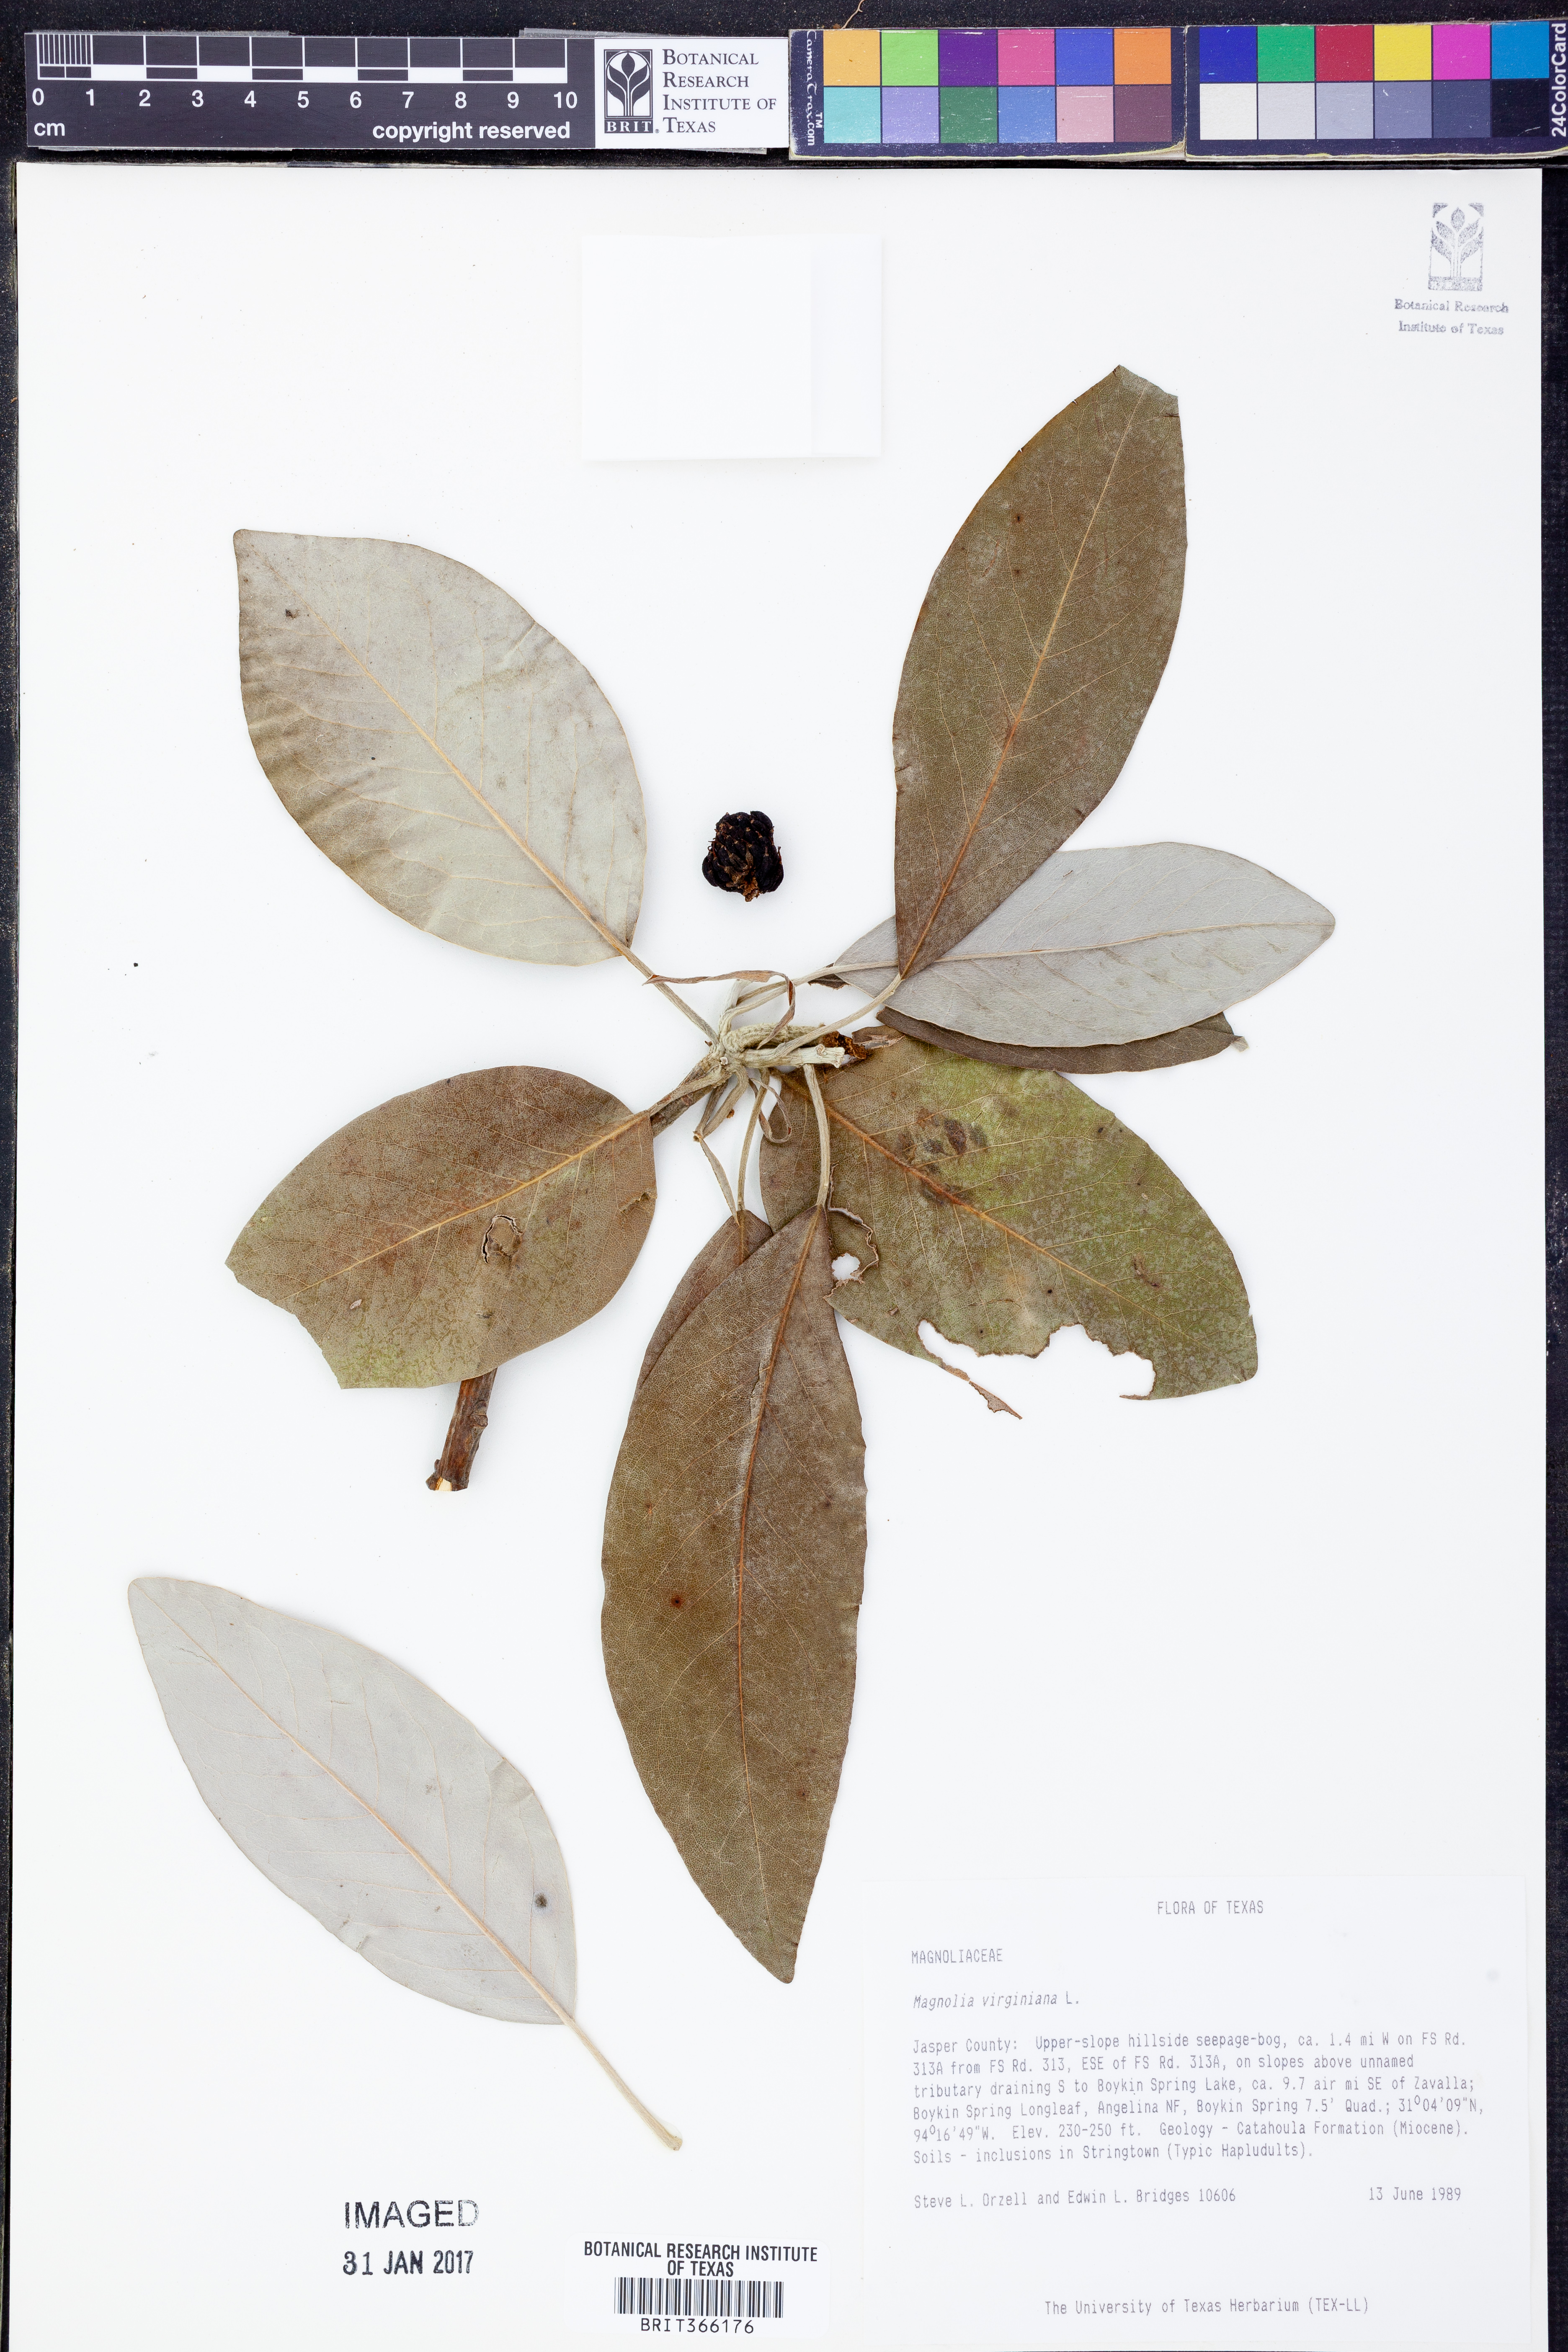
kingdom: Plantae
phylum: Tracheophyta
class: Magnoliopsida
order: Magnoliales
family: Magnoliaceae
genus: Magnolia
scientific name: Magnolia virginiana
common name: Swamp bay
